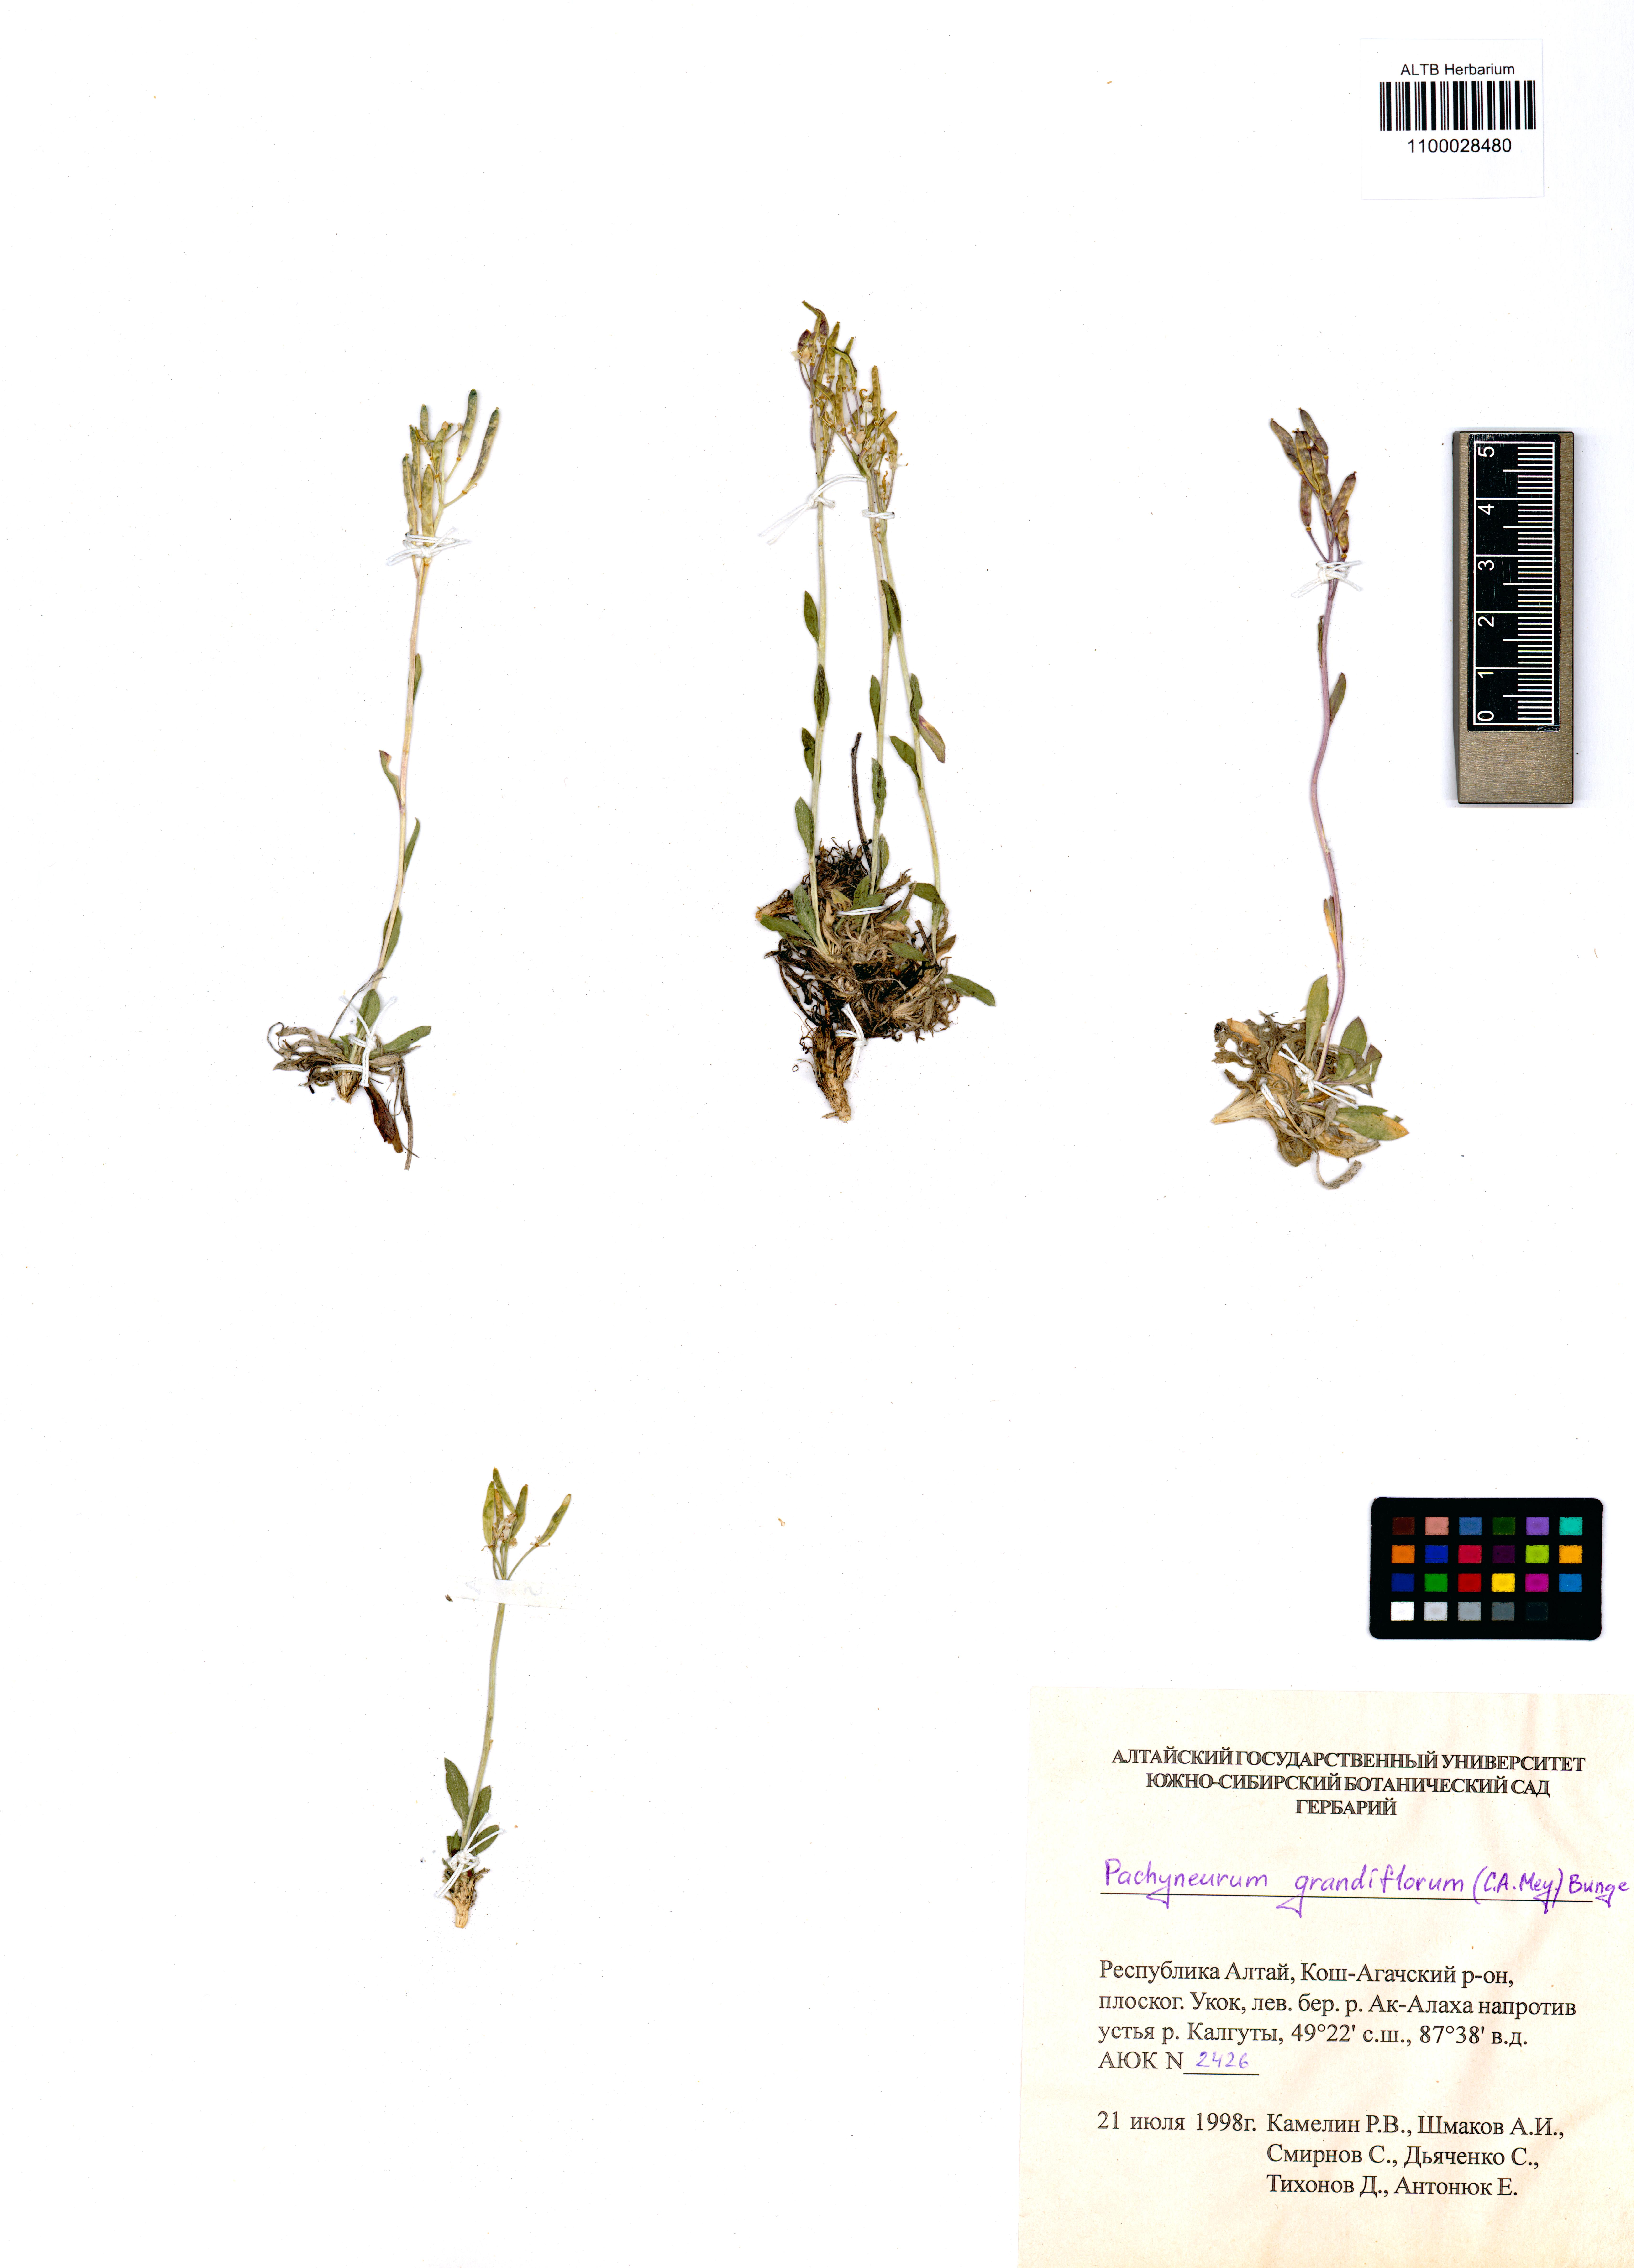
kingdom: Plantae
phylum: Tracheophyta
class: Magnoliopsida
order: Brassicales
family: Brassicaceae
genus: Pachyneurum
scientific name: Pachyneurum grandiflorum
